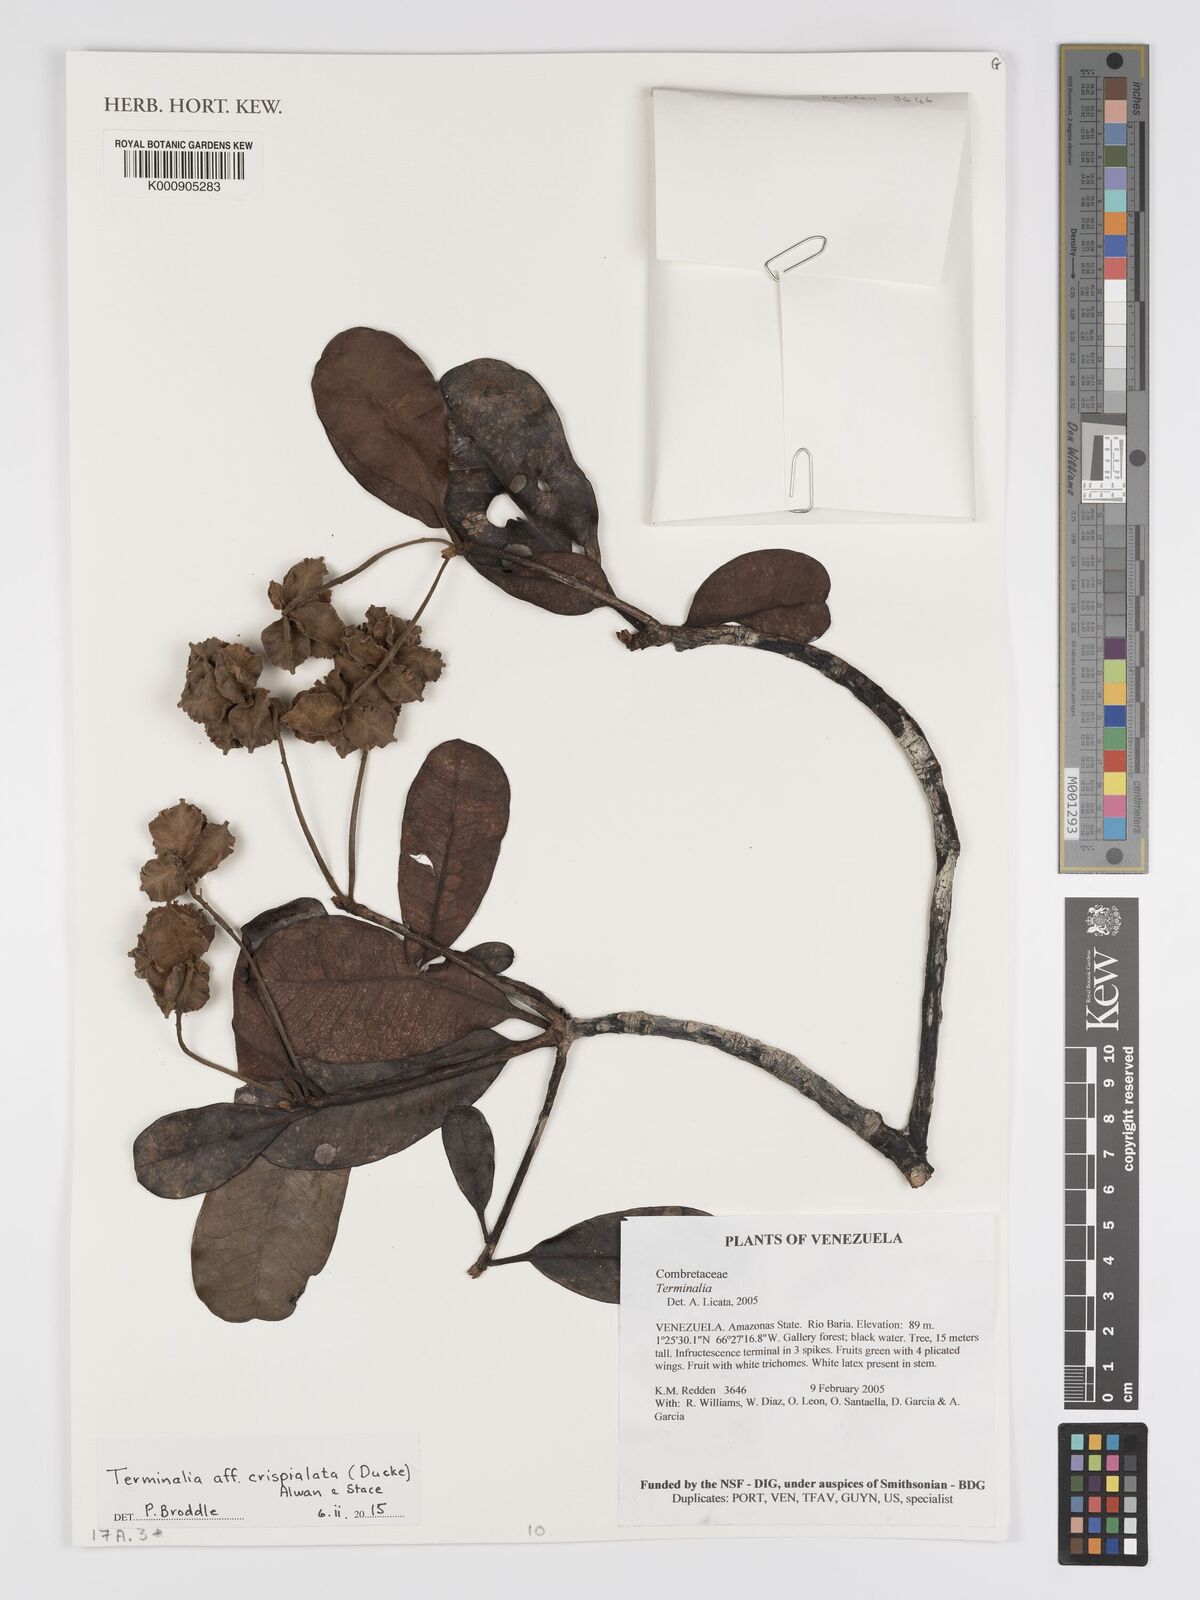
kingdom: Plantae
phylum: Tracheophyta
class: Magnoliopsida
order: Myrtales
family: Combretaceae
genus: Terminalia
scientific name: Terminalia crispialata
